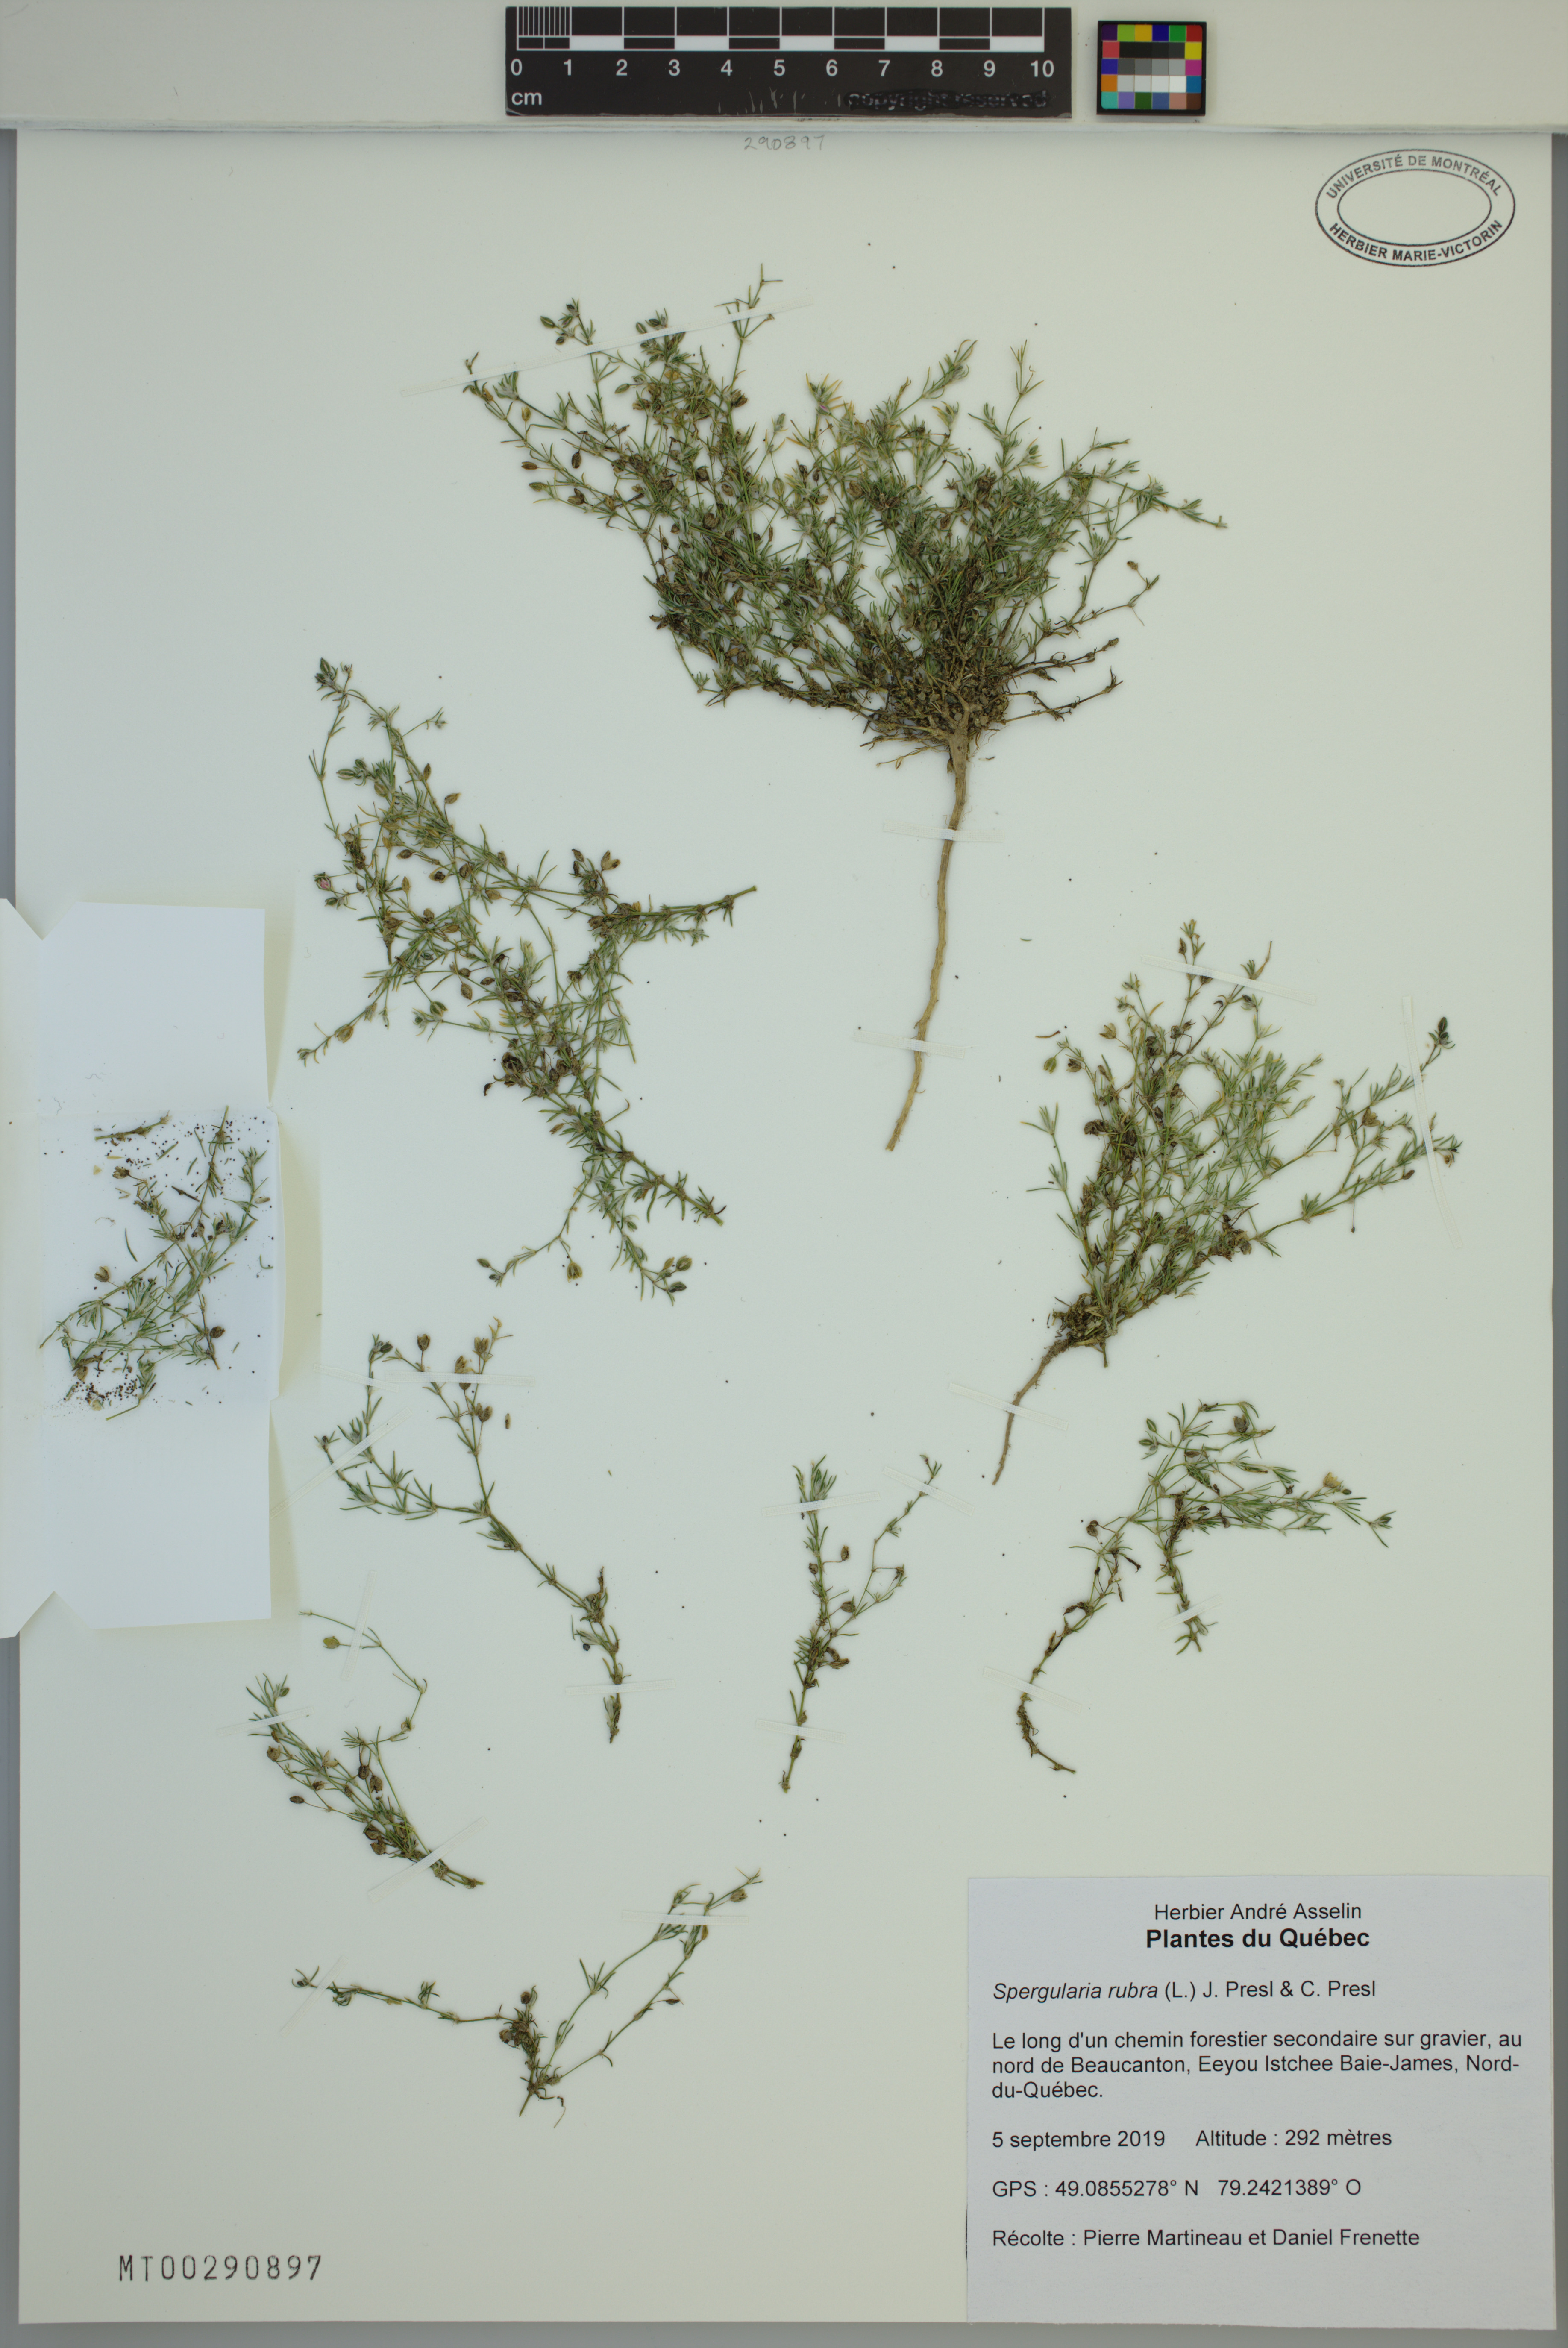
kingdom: Plantae
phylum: Tracheophyta
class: Magnoliopsida
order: Caryophyllales
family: Caryophyllaceae
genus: Spergularia
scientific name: Spergularia rubra
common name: Red sand-spurrey
